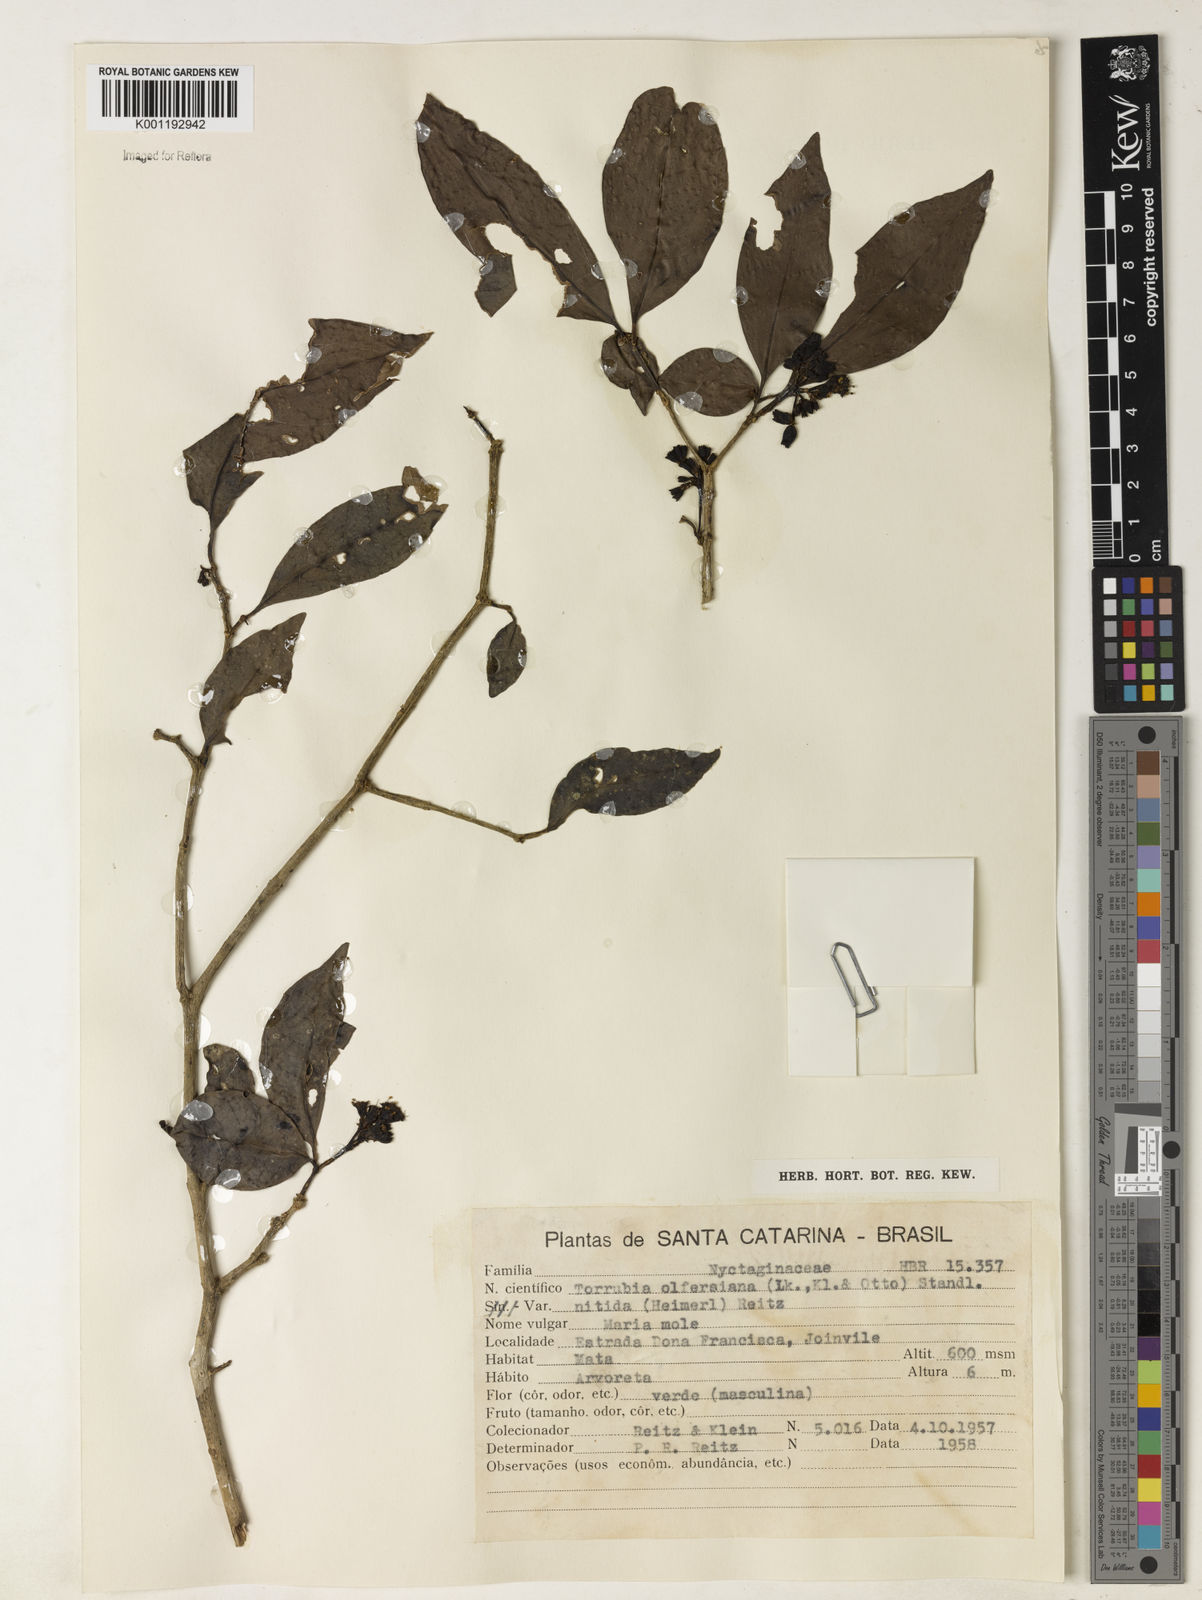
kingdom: Plantae
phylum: Tracheophyta
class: Magnoliopsida
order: Caryophyllales
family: Nyctaginaceae
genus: Guapira
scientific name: Guapira
